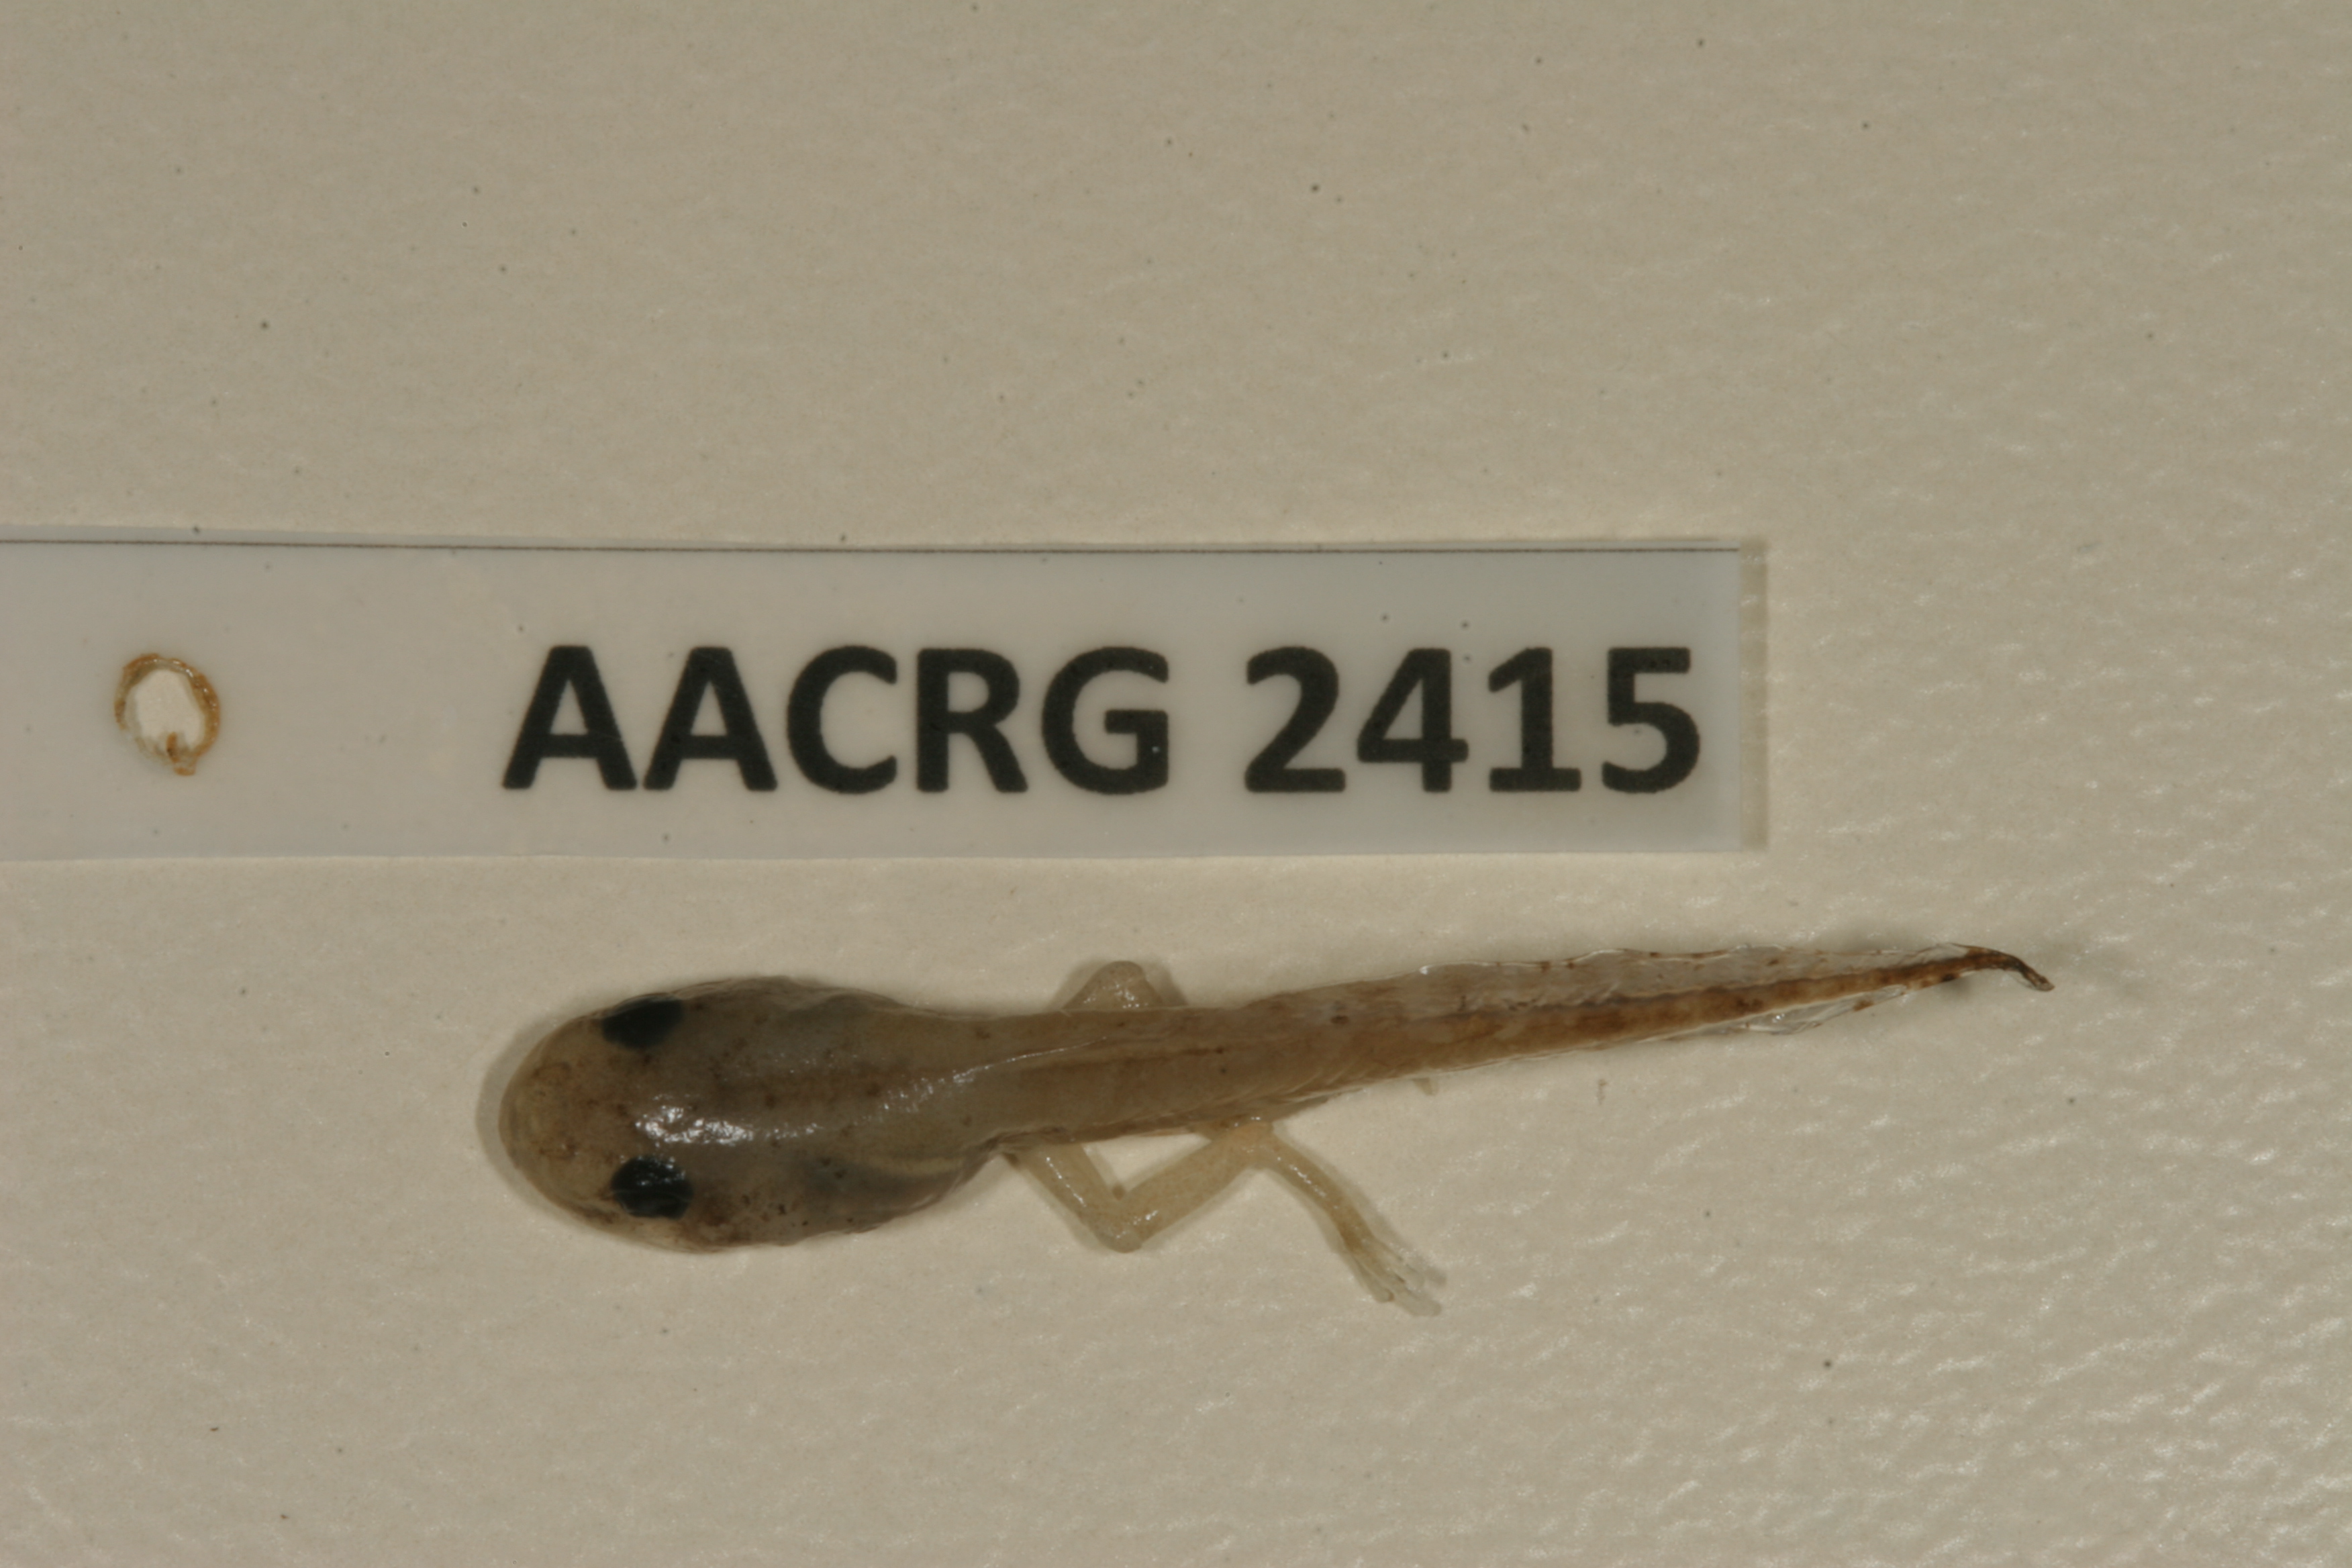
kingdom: Animalia
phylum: Chordata
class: Amphibia
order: Anura
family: Hyperoliidae
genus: Hyperolius
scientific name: Hyperolius nasutus
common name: Sharp-and-blunt-snouted sedge frog
